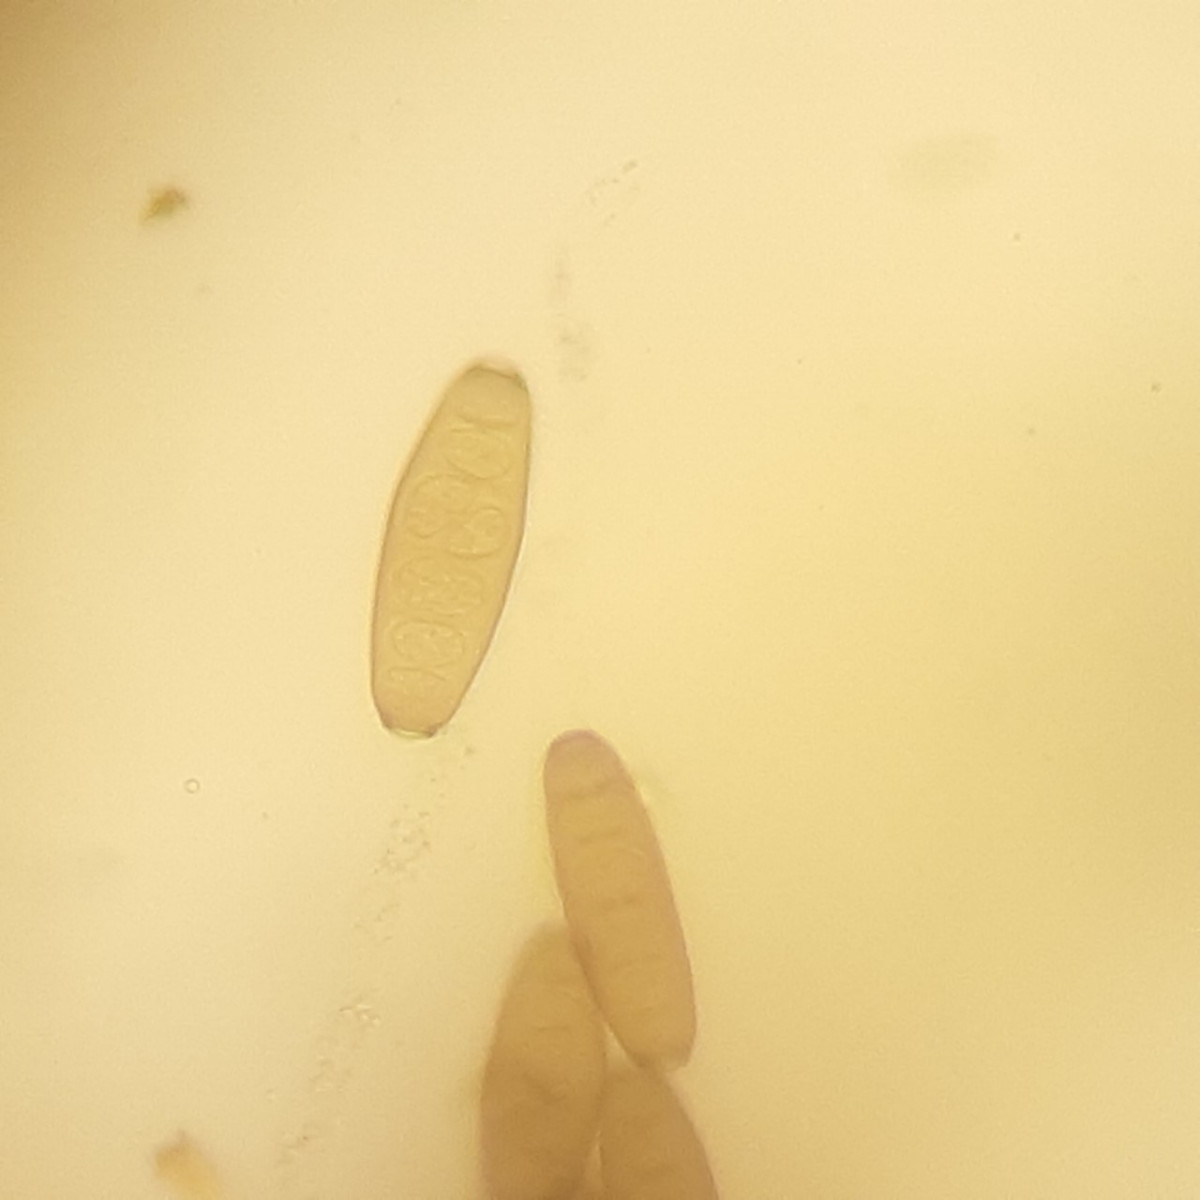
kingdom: Fungi
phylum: Ascomycota
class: Sordariomycetes
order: Diaporthales
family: Coryneaceae
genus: Coryneum
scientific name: Coryneum lanciforme
